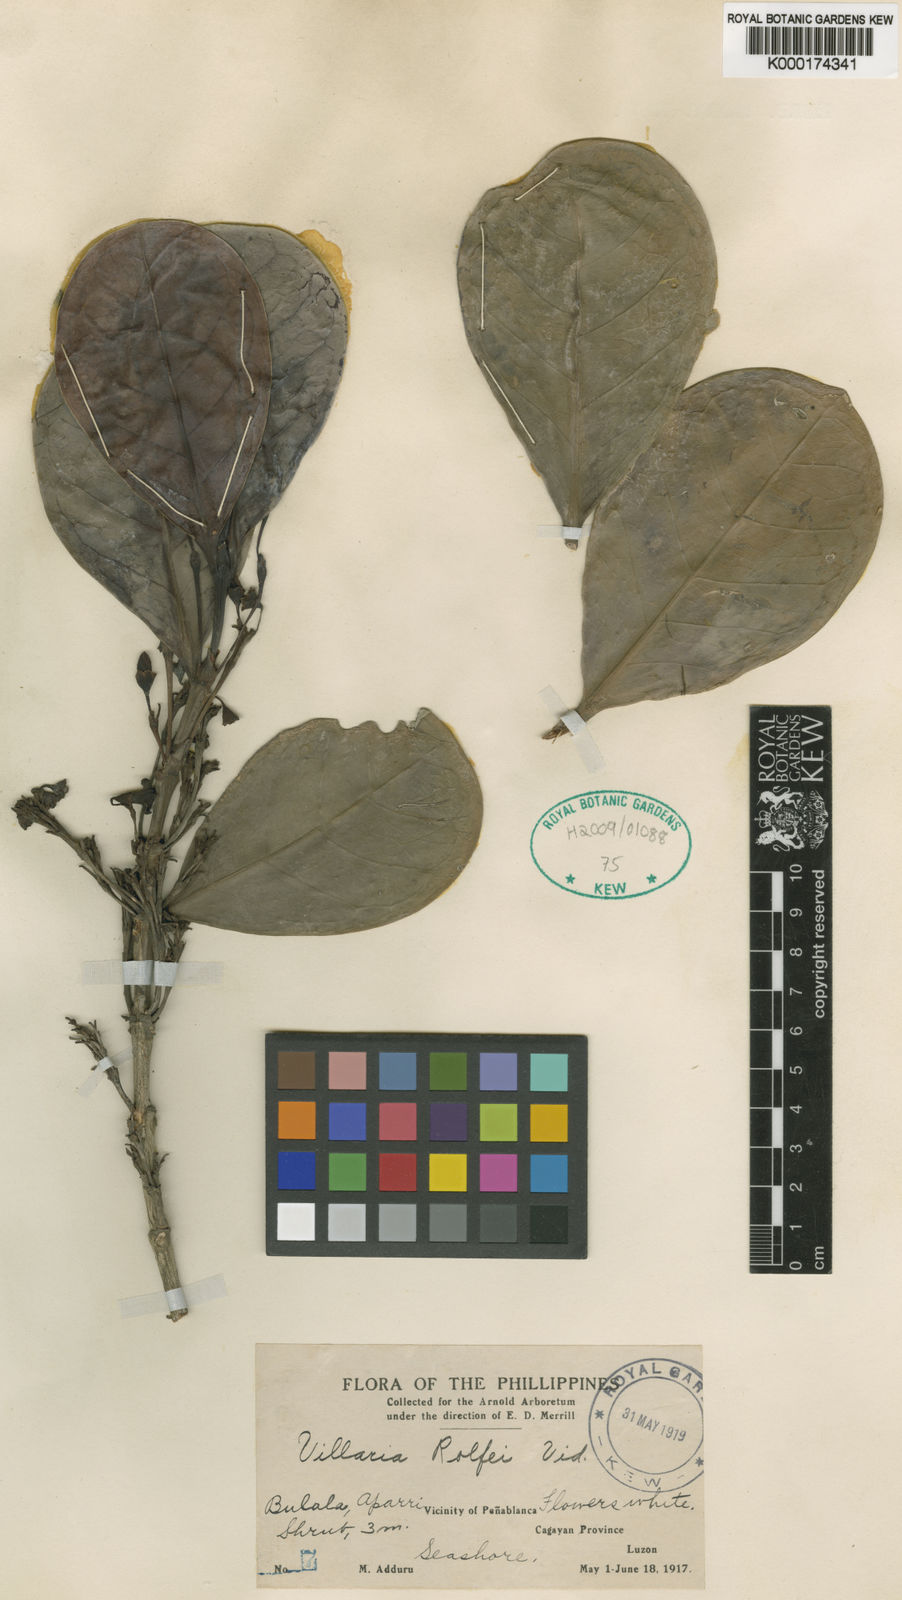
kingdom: Plantae
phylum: Tracheophyta
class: Magnoliopsida
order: Gentianales
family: Rubiaceae
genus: Villaria
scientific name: Villaria odorata
